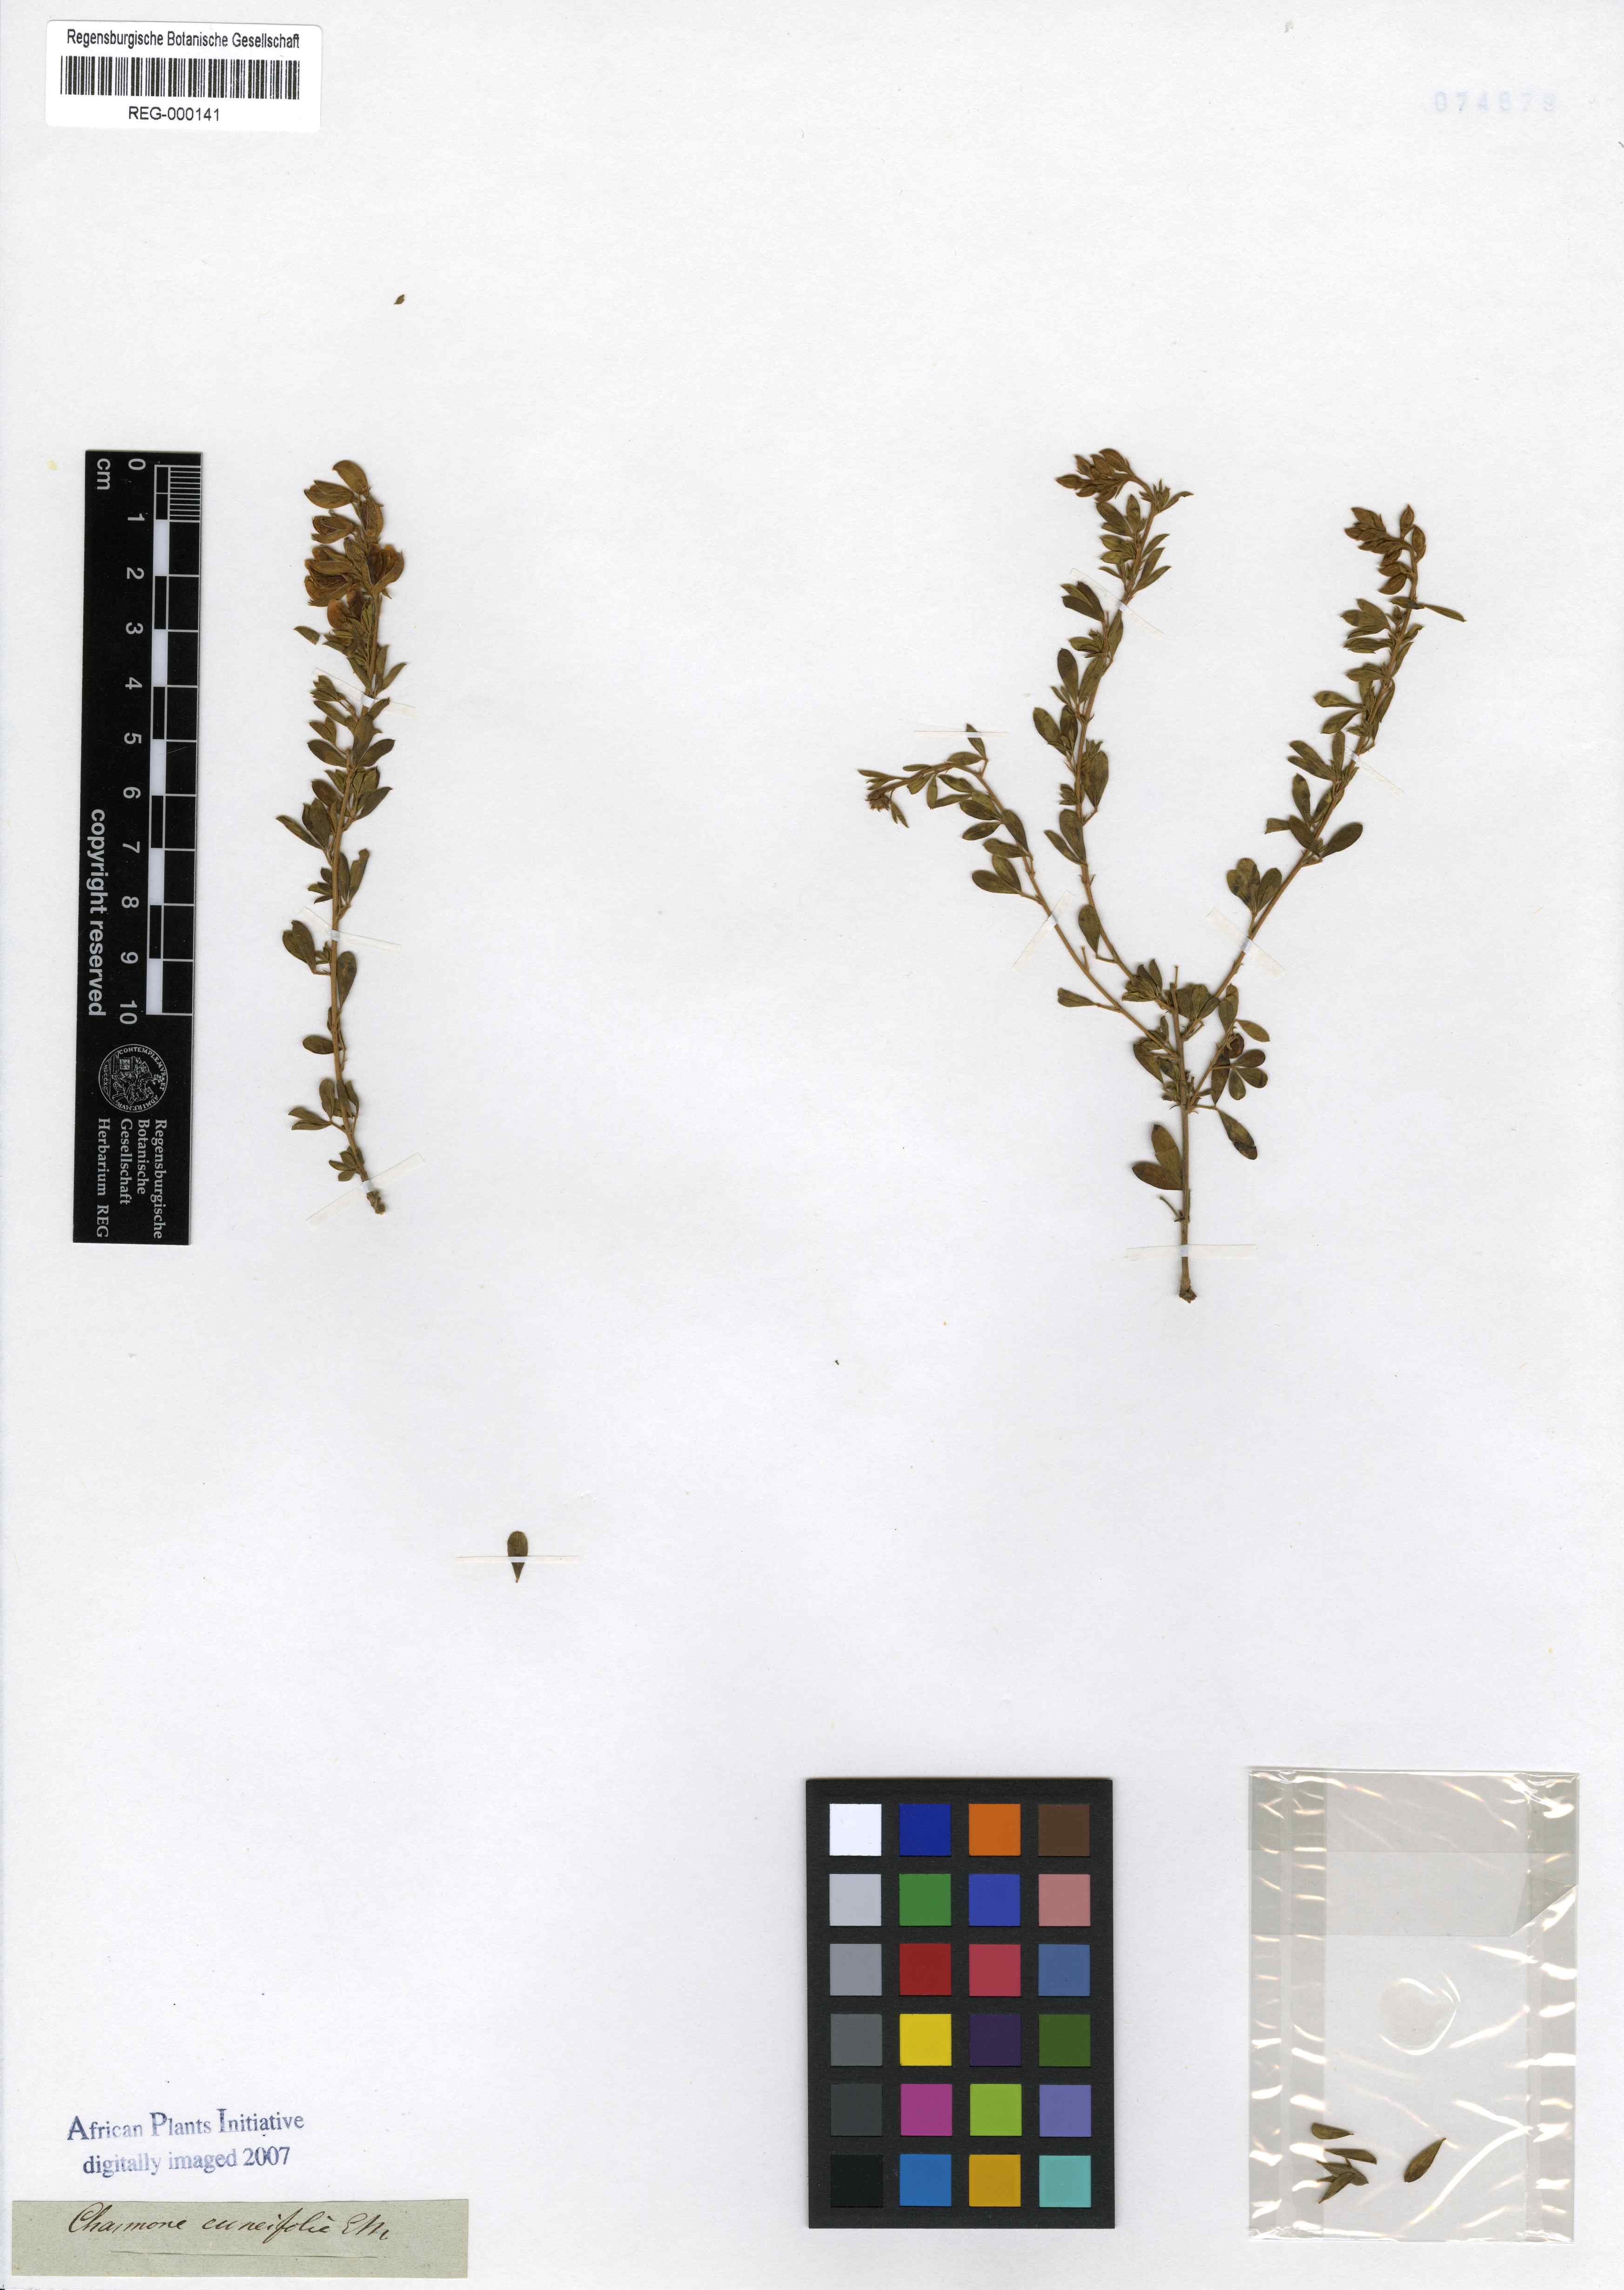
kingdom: Plantae
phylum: Tracheophyta
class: Magnoliopsida
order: Fabales
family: Fabaceae
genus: Argyrolobium
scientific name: Argyrolobium polyphyllum
